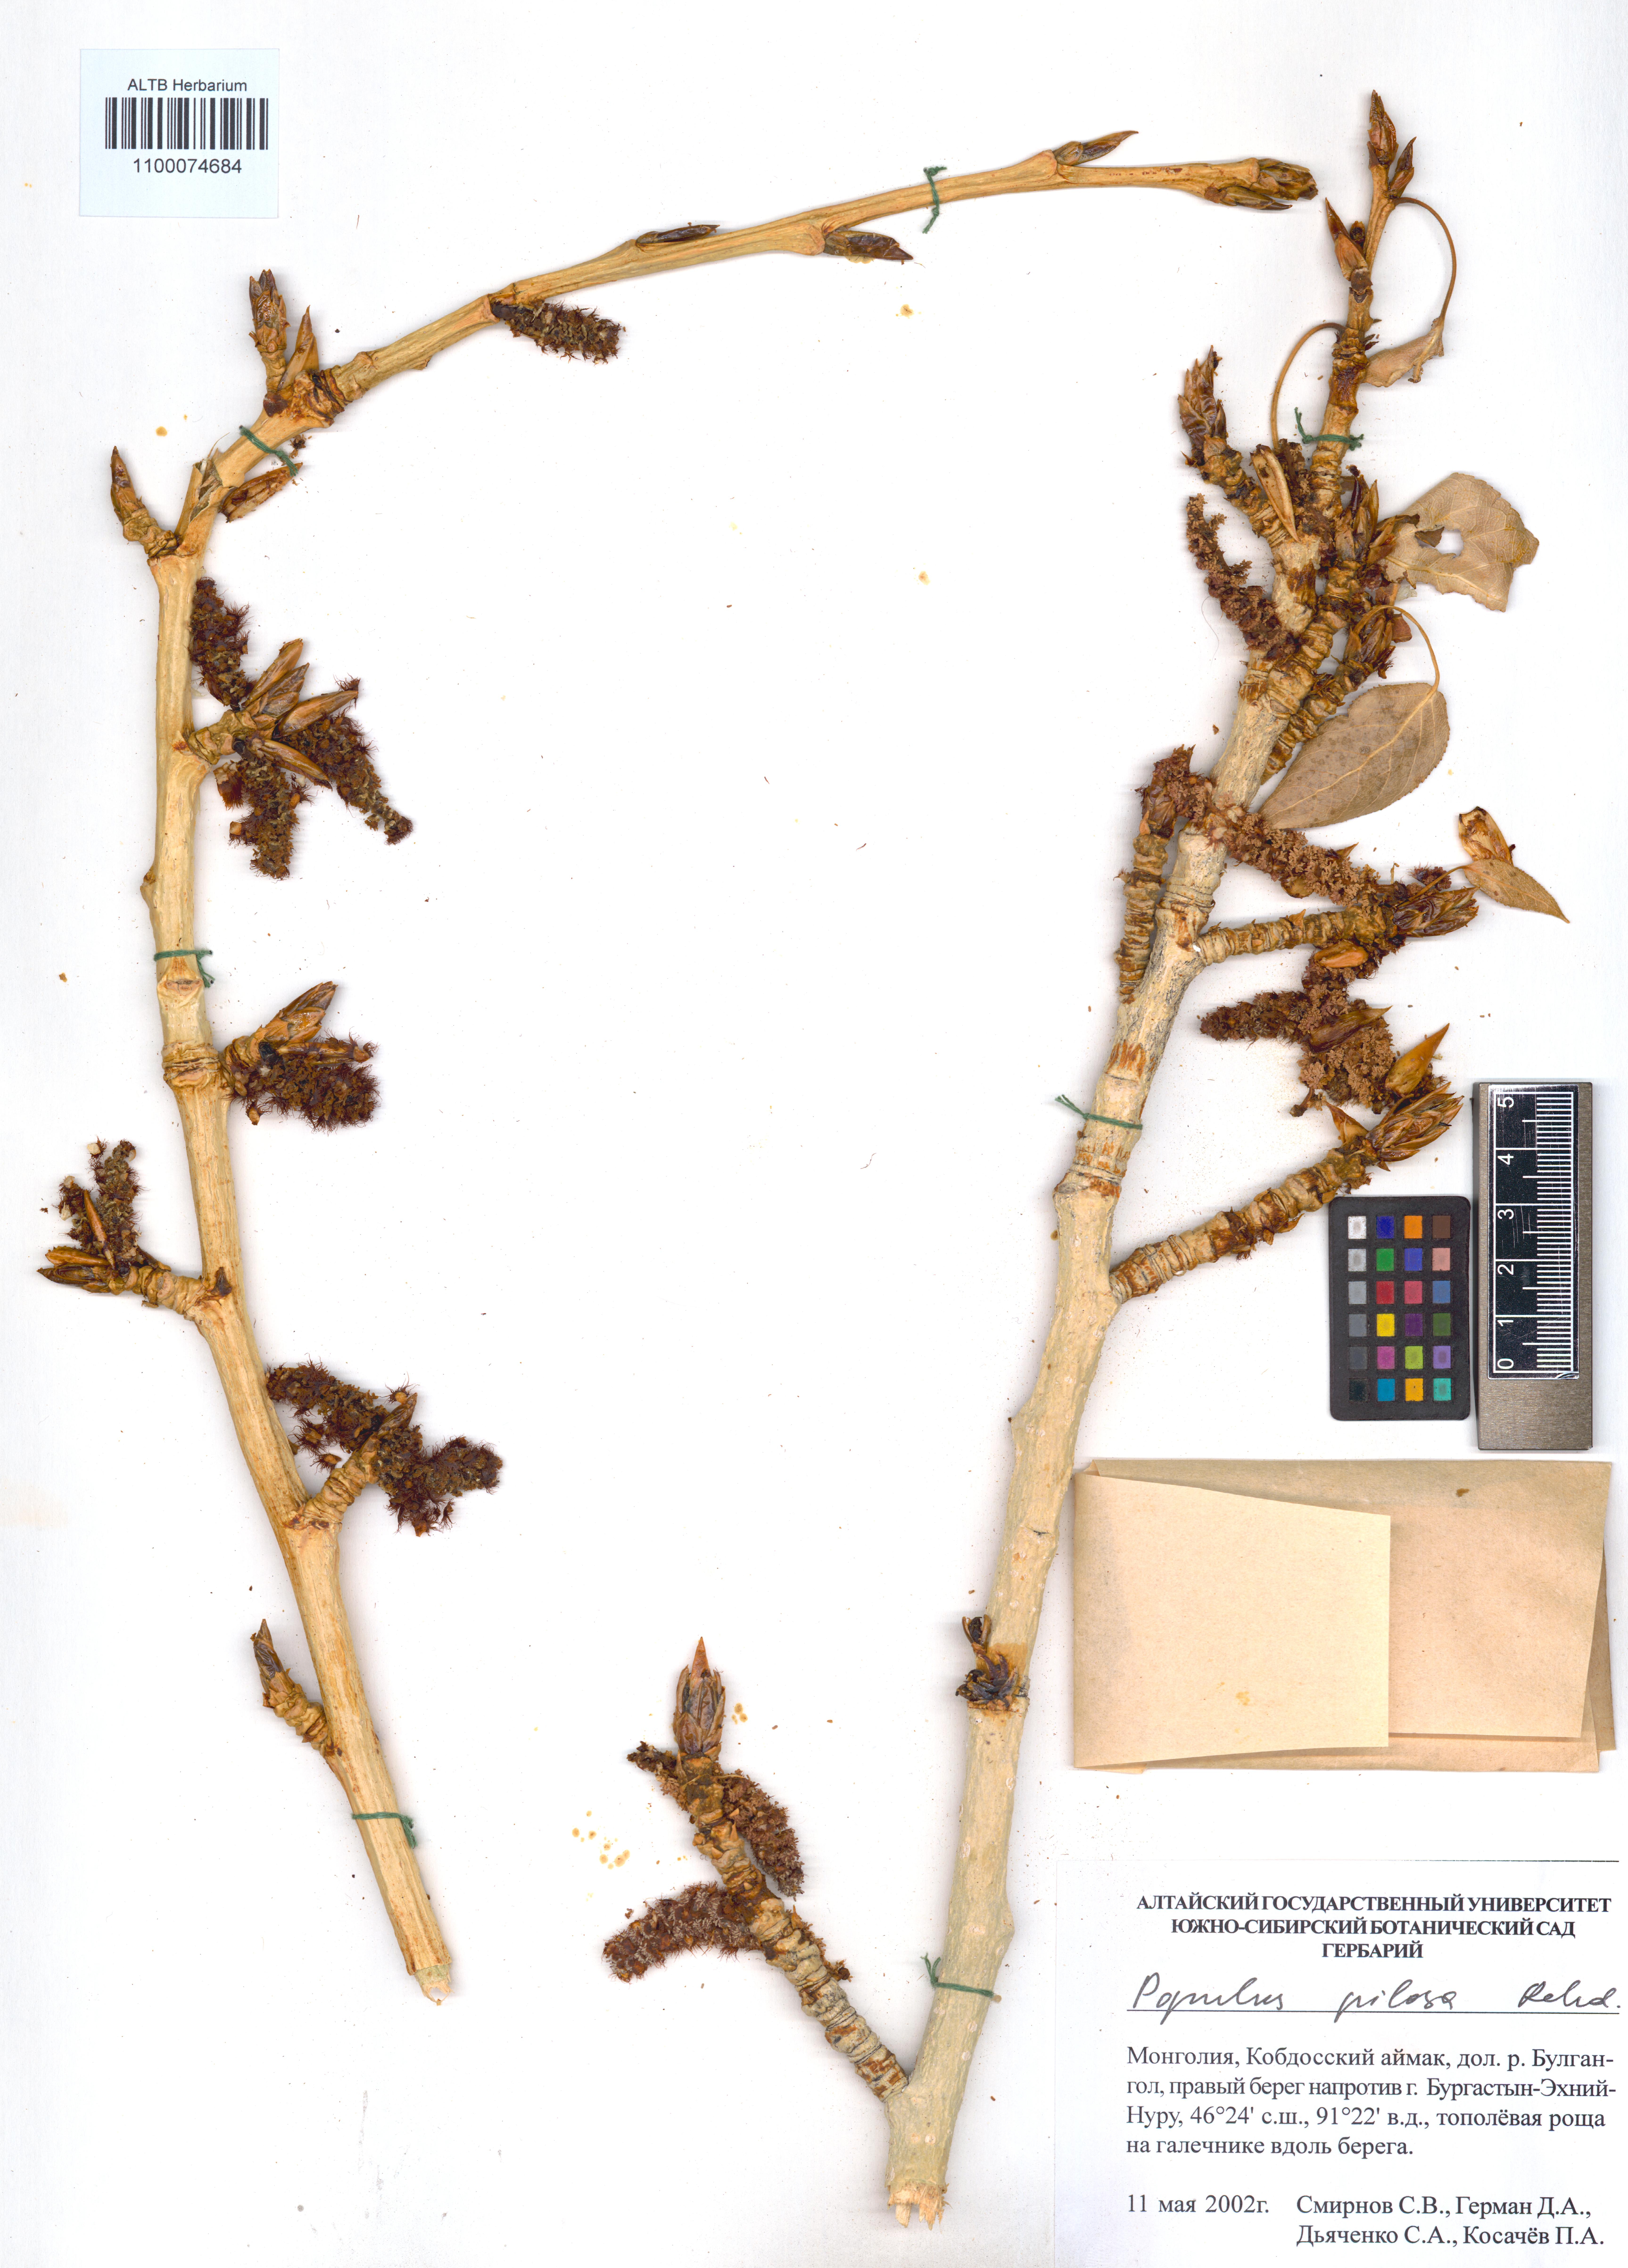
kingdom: Plantae
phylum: Tracheophyta
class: Magnoliopsida
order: Malpighiales
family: Salicaceae
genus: Populus
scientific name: Populus laurifolia
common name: Laurel-leaf poplar
